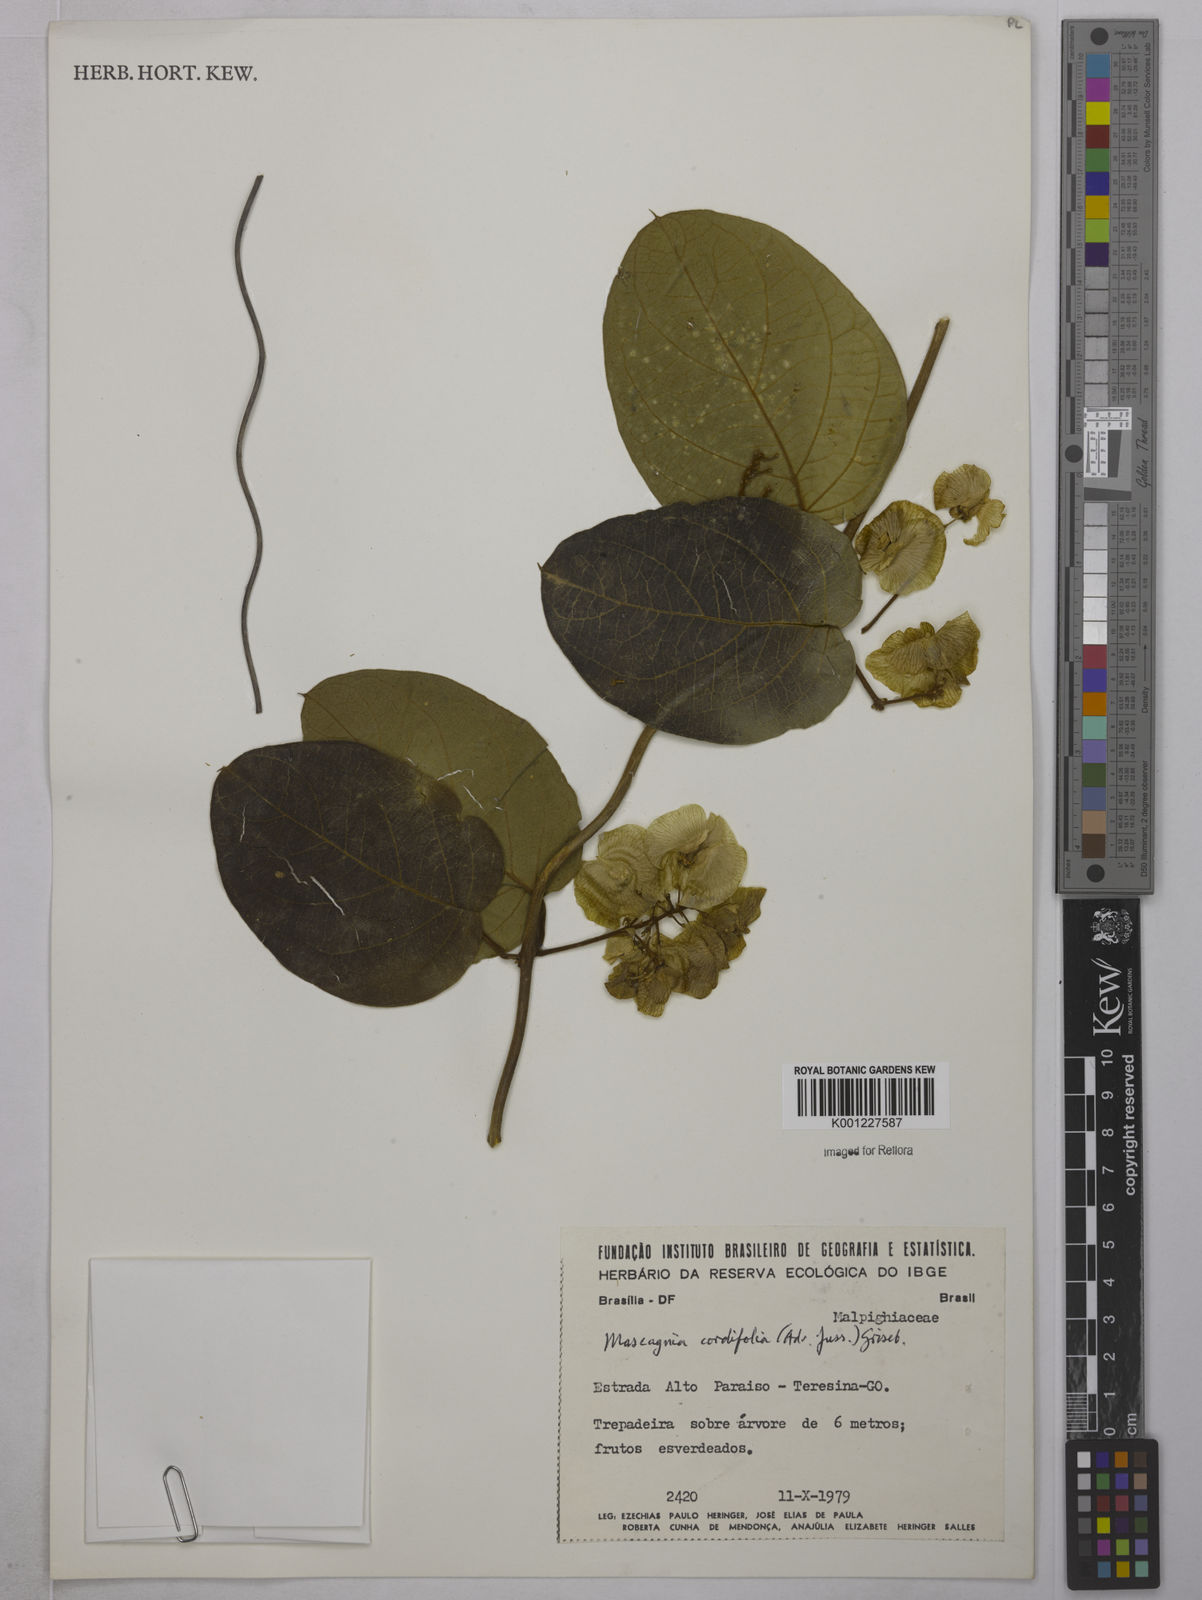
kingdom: Plantae
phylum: Tracheophyta
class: Magnoliopsida
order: Malpighiales
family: Malpighiaceae
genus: Mascagnia
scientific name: Mascagnia cordifolia
